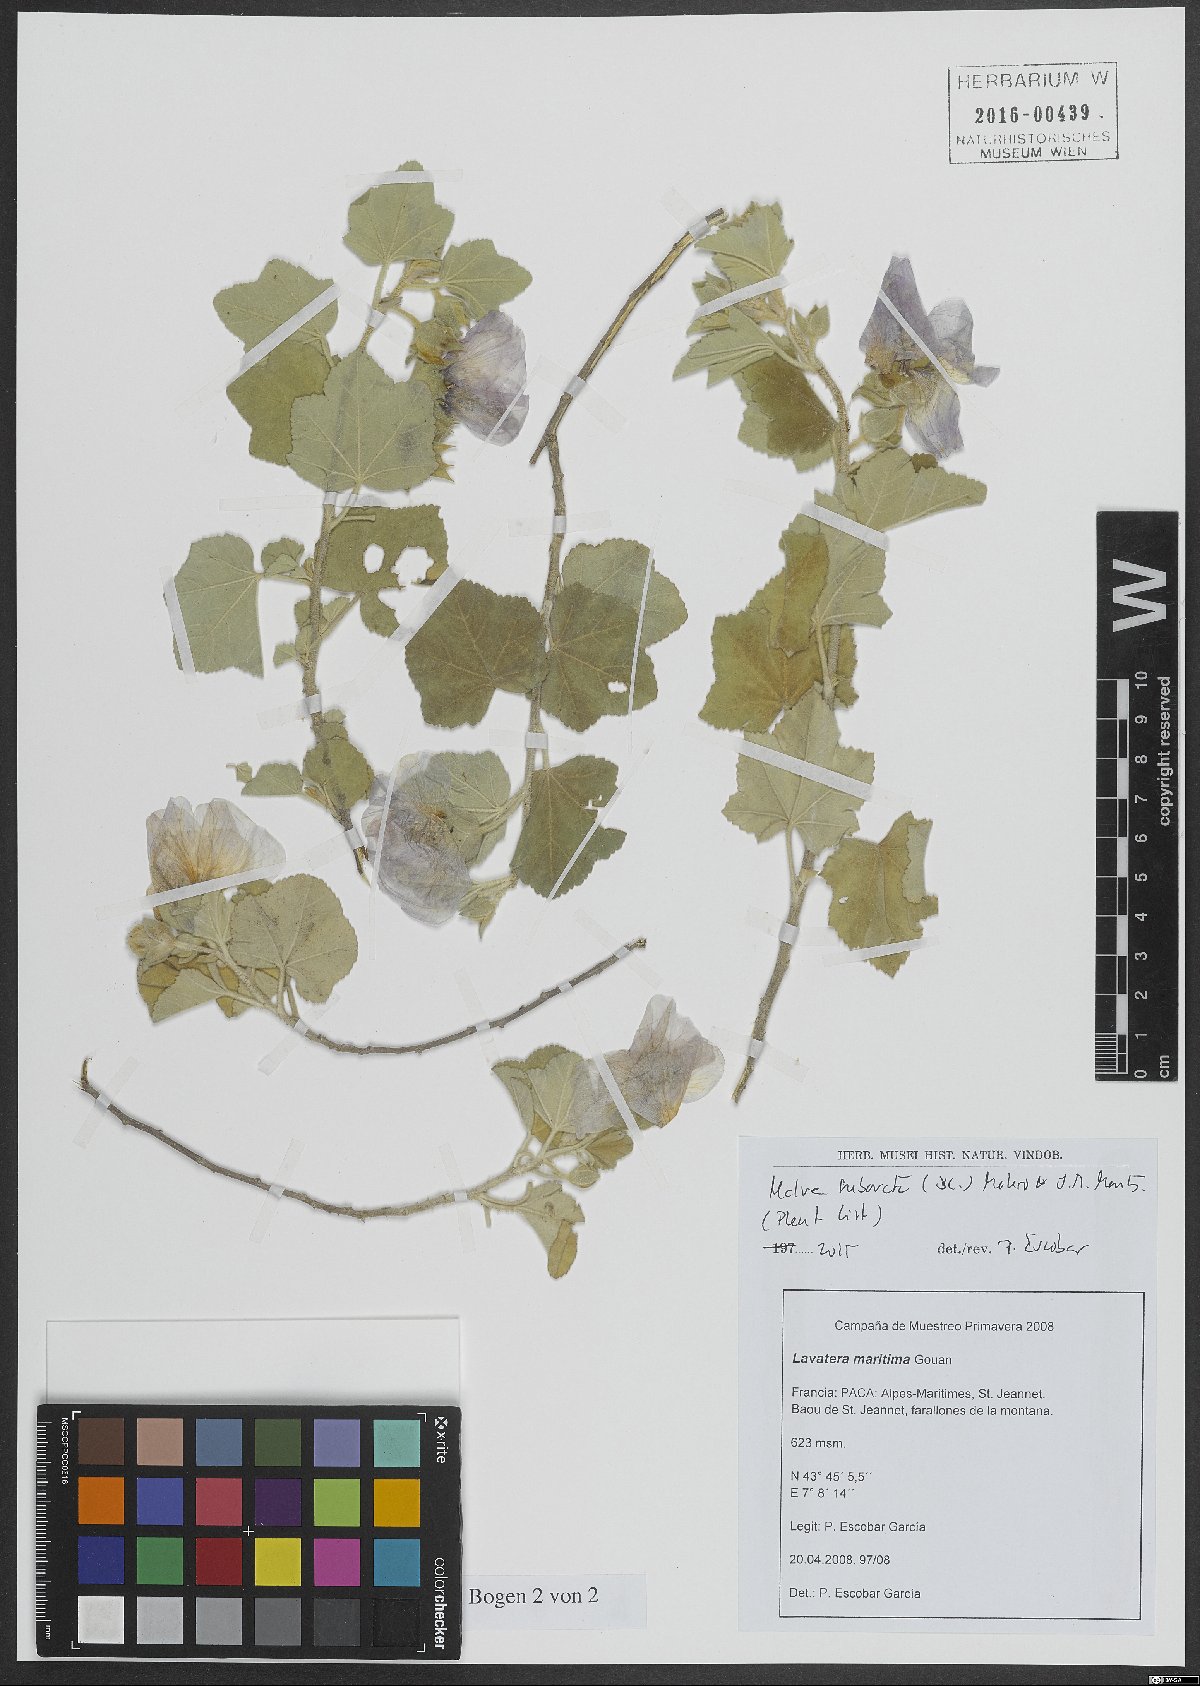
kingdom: Plantae
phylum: Tracheophyta
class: Magnoliopsida
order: Malvales
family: Malvaceae
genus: Malva
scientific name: Malva subovata
